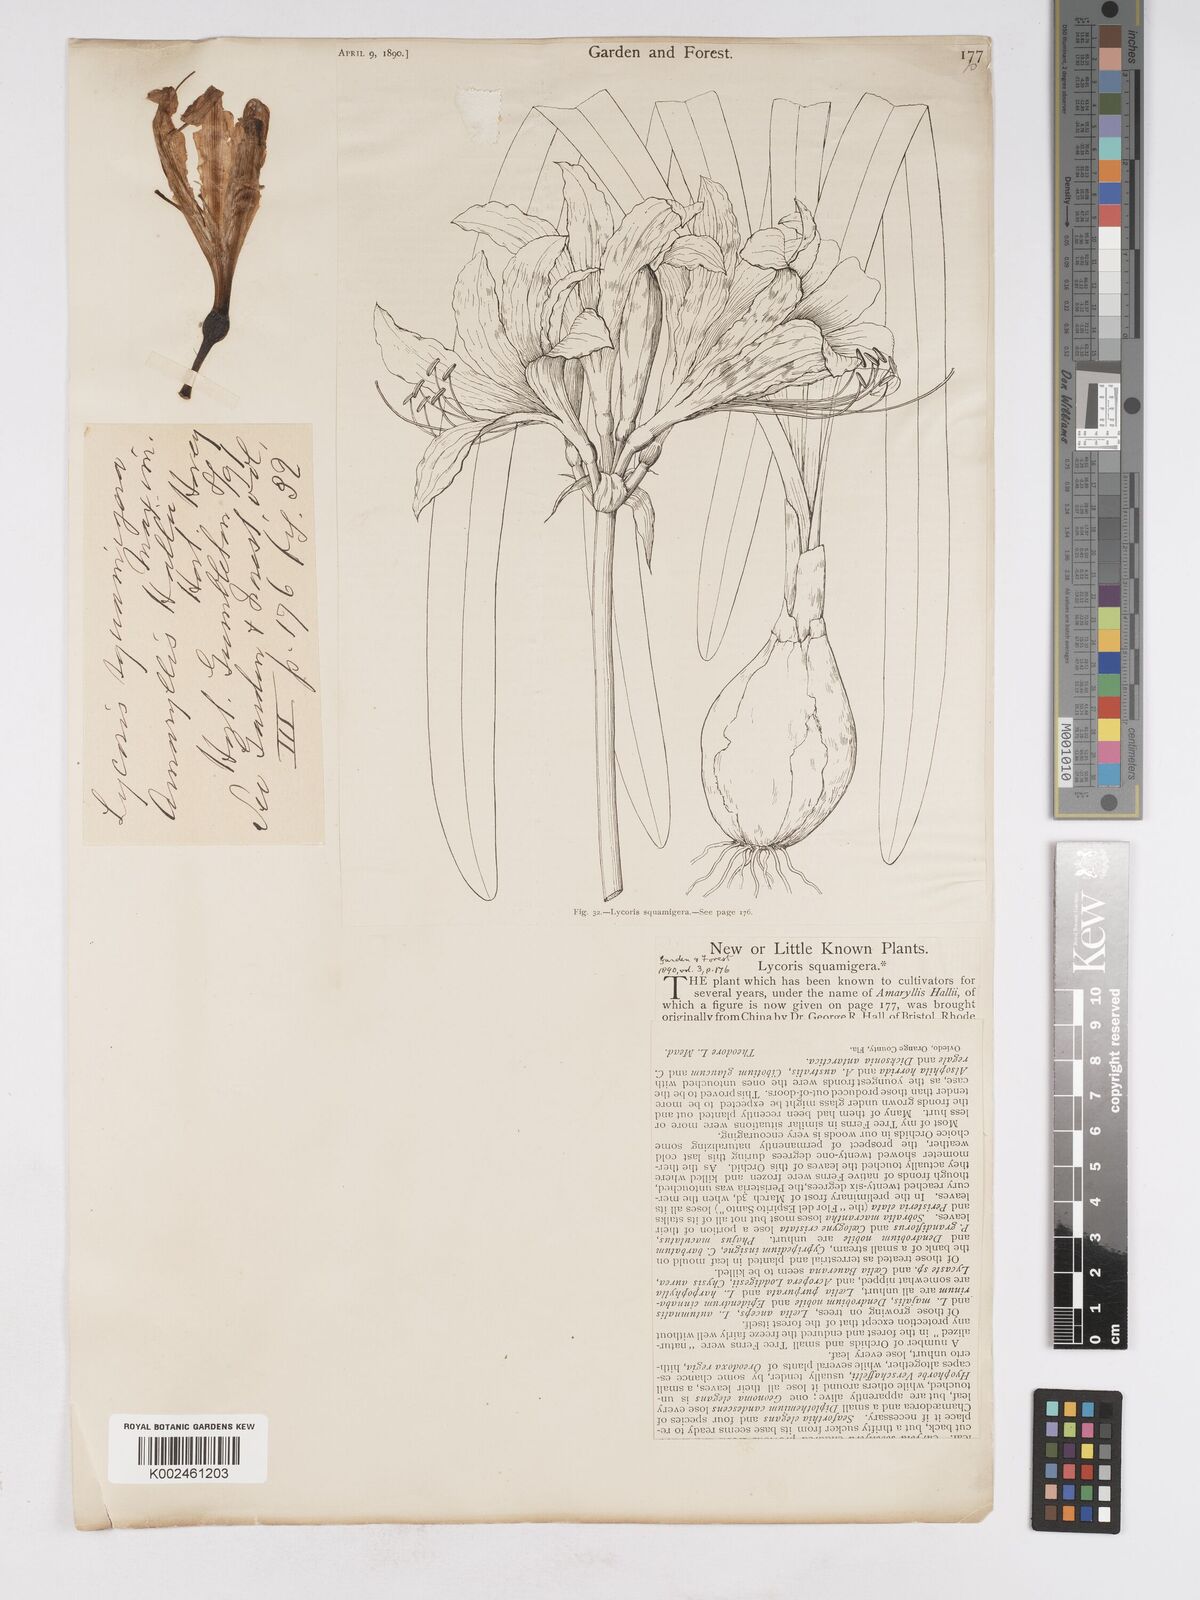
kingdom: Plantae
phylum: Tracheophyta
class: Liliopsida
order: Asparagales
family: Amaryllidaceae
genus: Lycoris
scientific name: Lycoris squamigera
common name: Magic-lily
